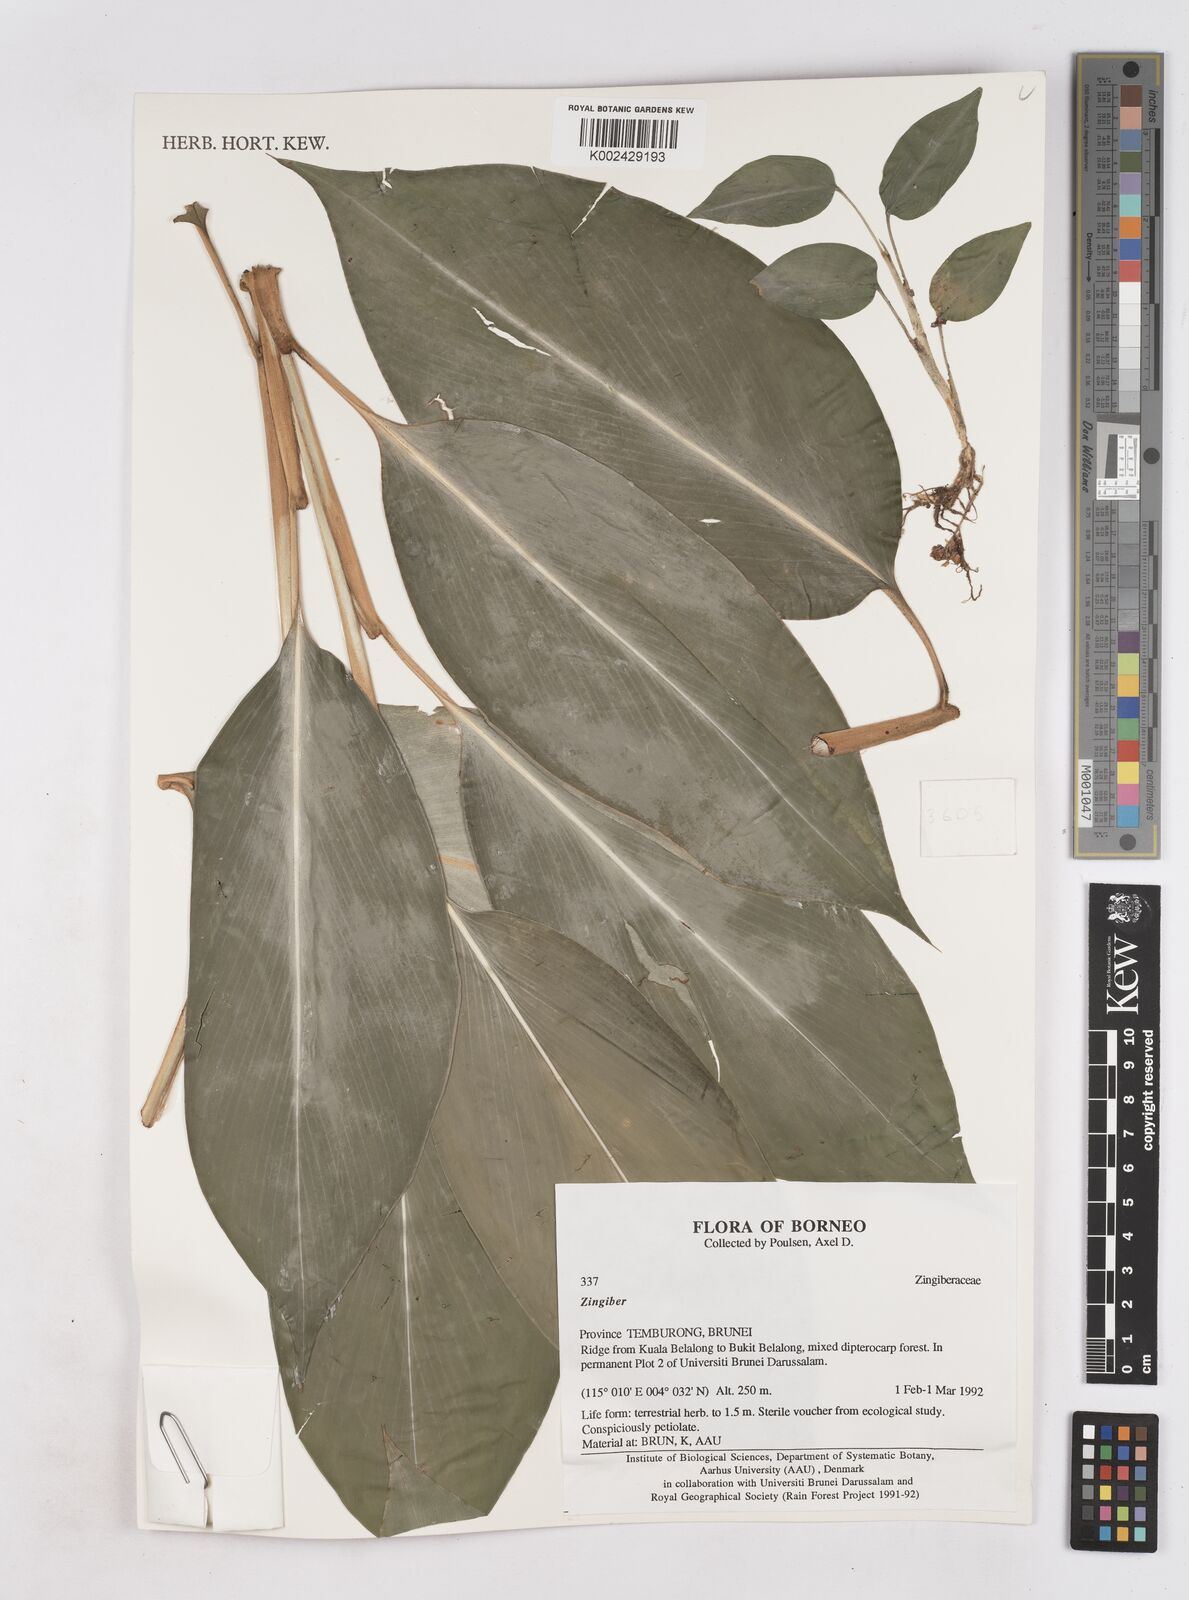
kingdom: Plantae
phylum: Tracheophyta
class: Liliopsida
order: Zingiberales
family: Zingiberaceae
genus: Zingiber
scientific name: Zingiber
